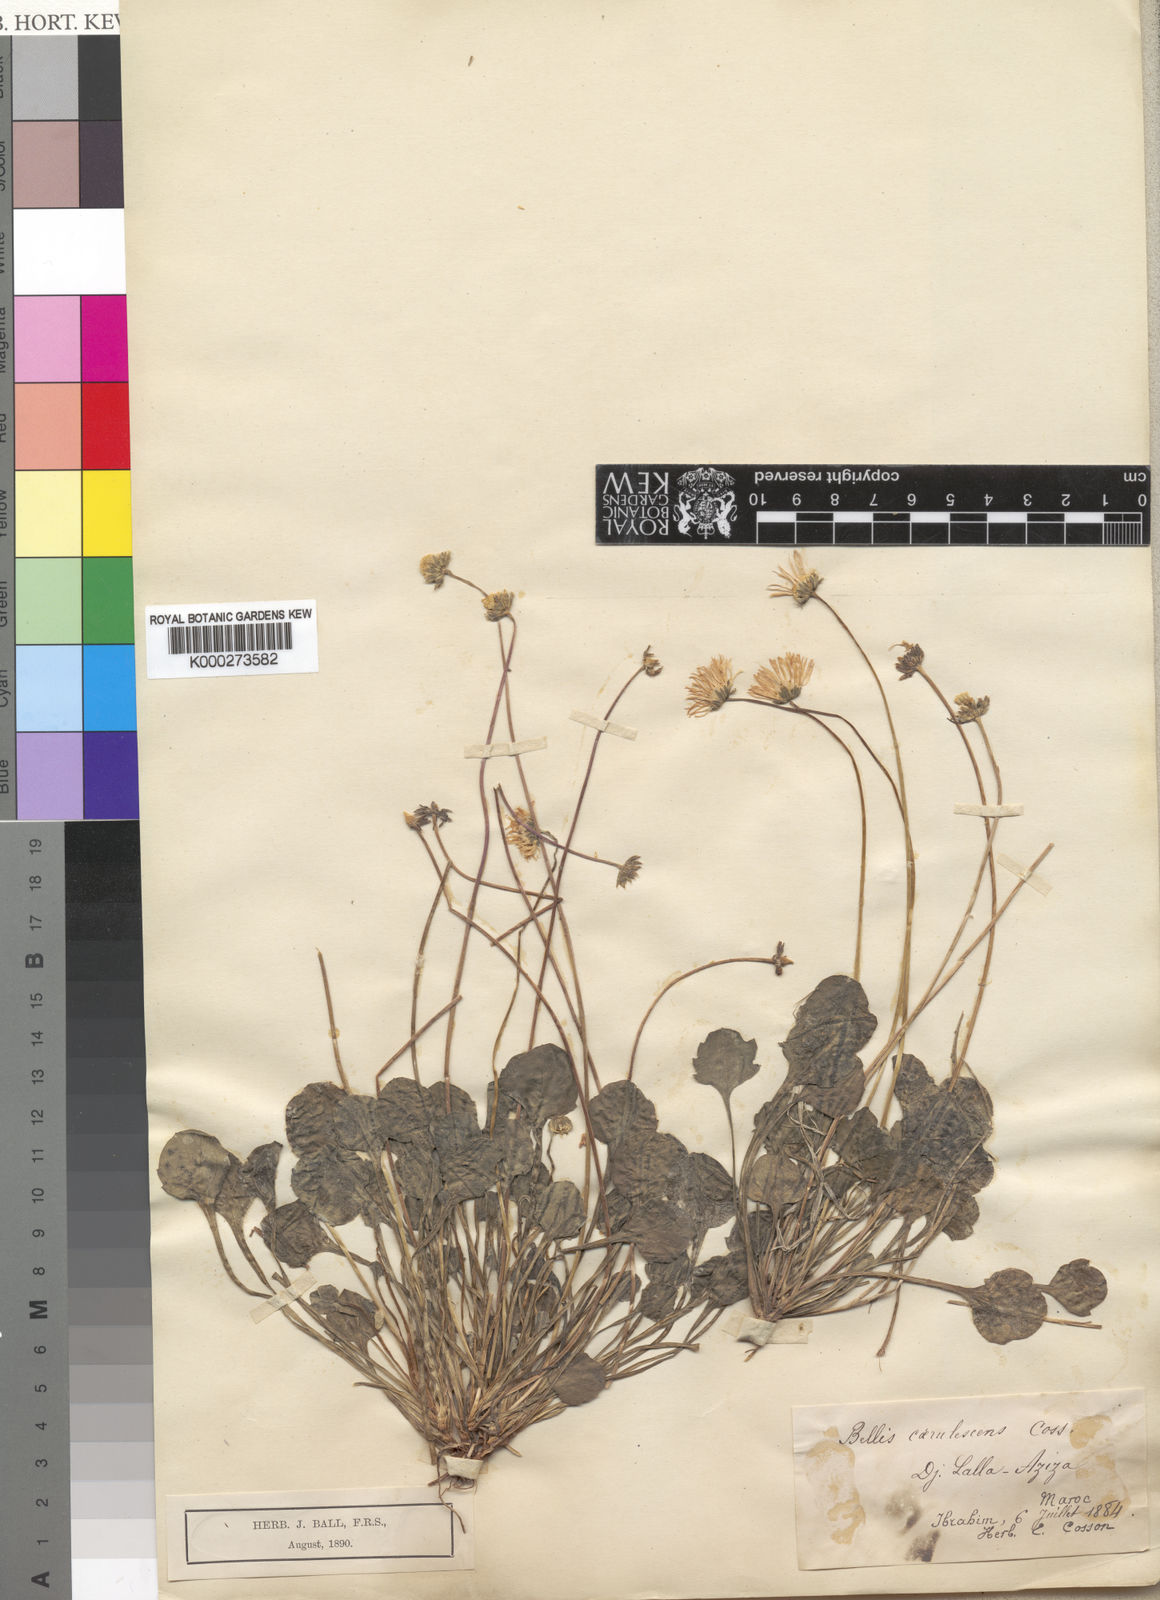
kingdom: Plantae
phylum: Tracheophyta
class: Magnoliopsida
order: Asterales
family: Asteraceae
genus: Bellis
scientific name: Bellis caerulescens
